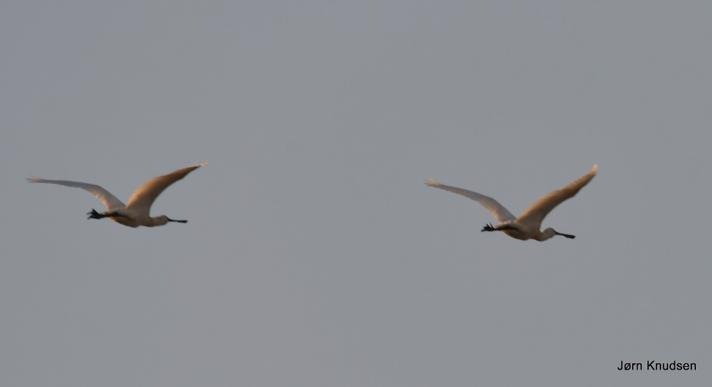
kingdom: Animalia
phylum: Chordata
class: Aves
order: Pelecaniformes
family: Threskiornithidae
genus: Platalea
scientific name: Platalea leucorodia
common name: Skestork
